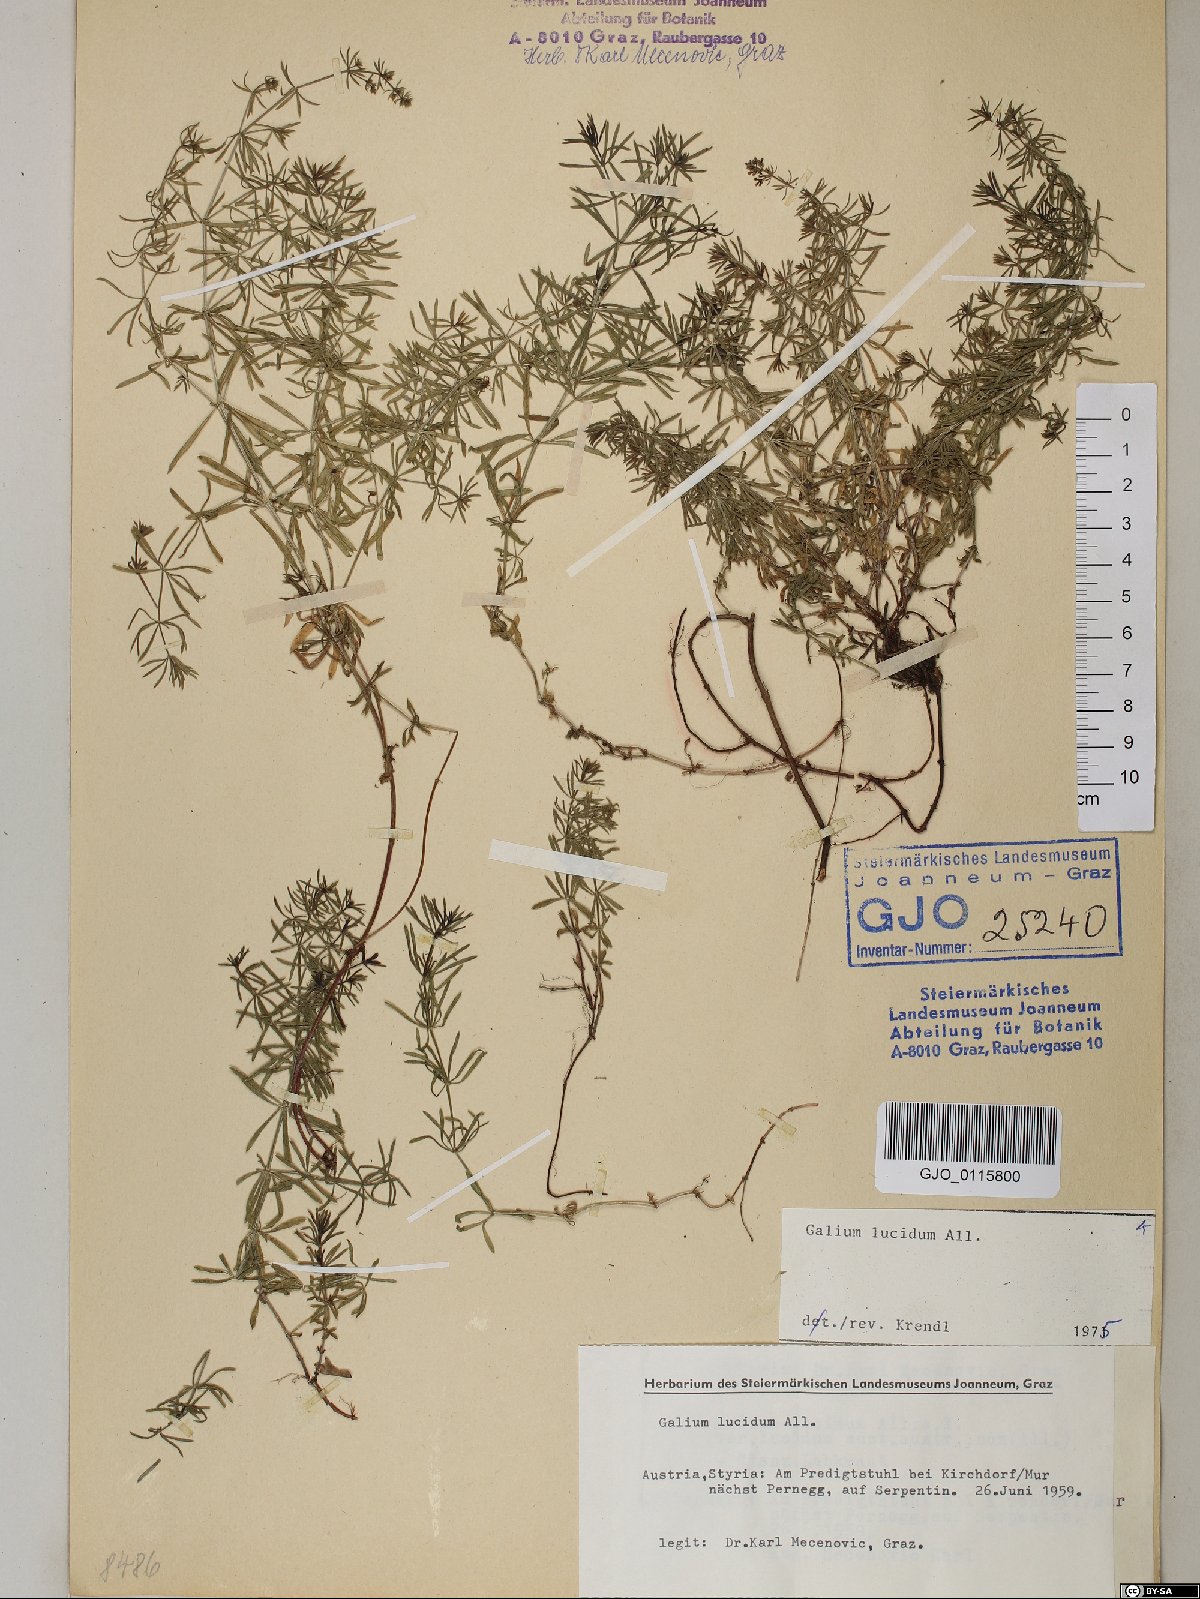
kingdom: Plantae
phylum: Tracheophyta
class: Magnoliopsida
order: Gentianales
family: Rubiaceae
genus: Galium
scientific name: Galium lucidum
